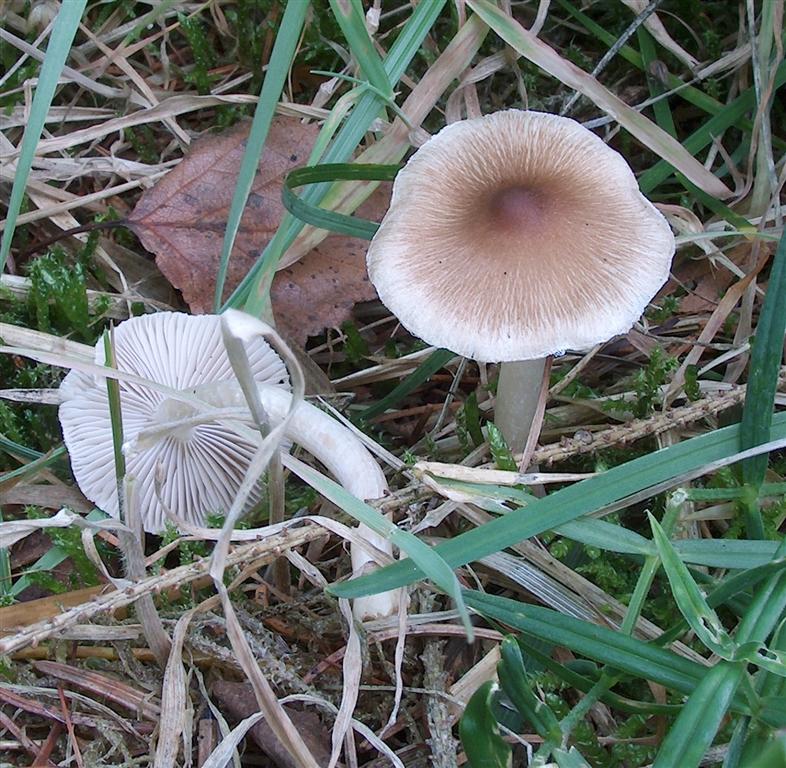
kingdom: Fungi
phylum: Basidiomycota
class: Agaricomycetes
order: Agaricales
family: Inocybaceae
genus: Inocybe
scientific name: Inocybe
